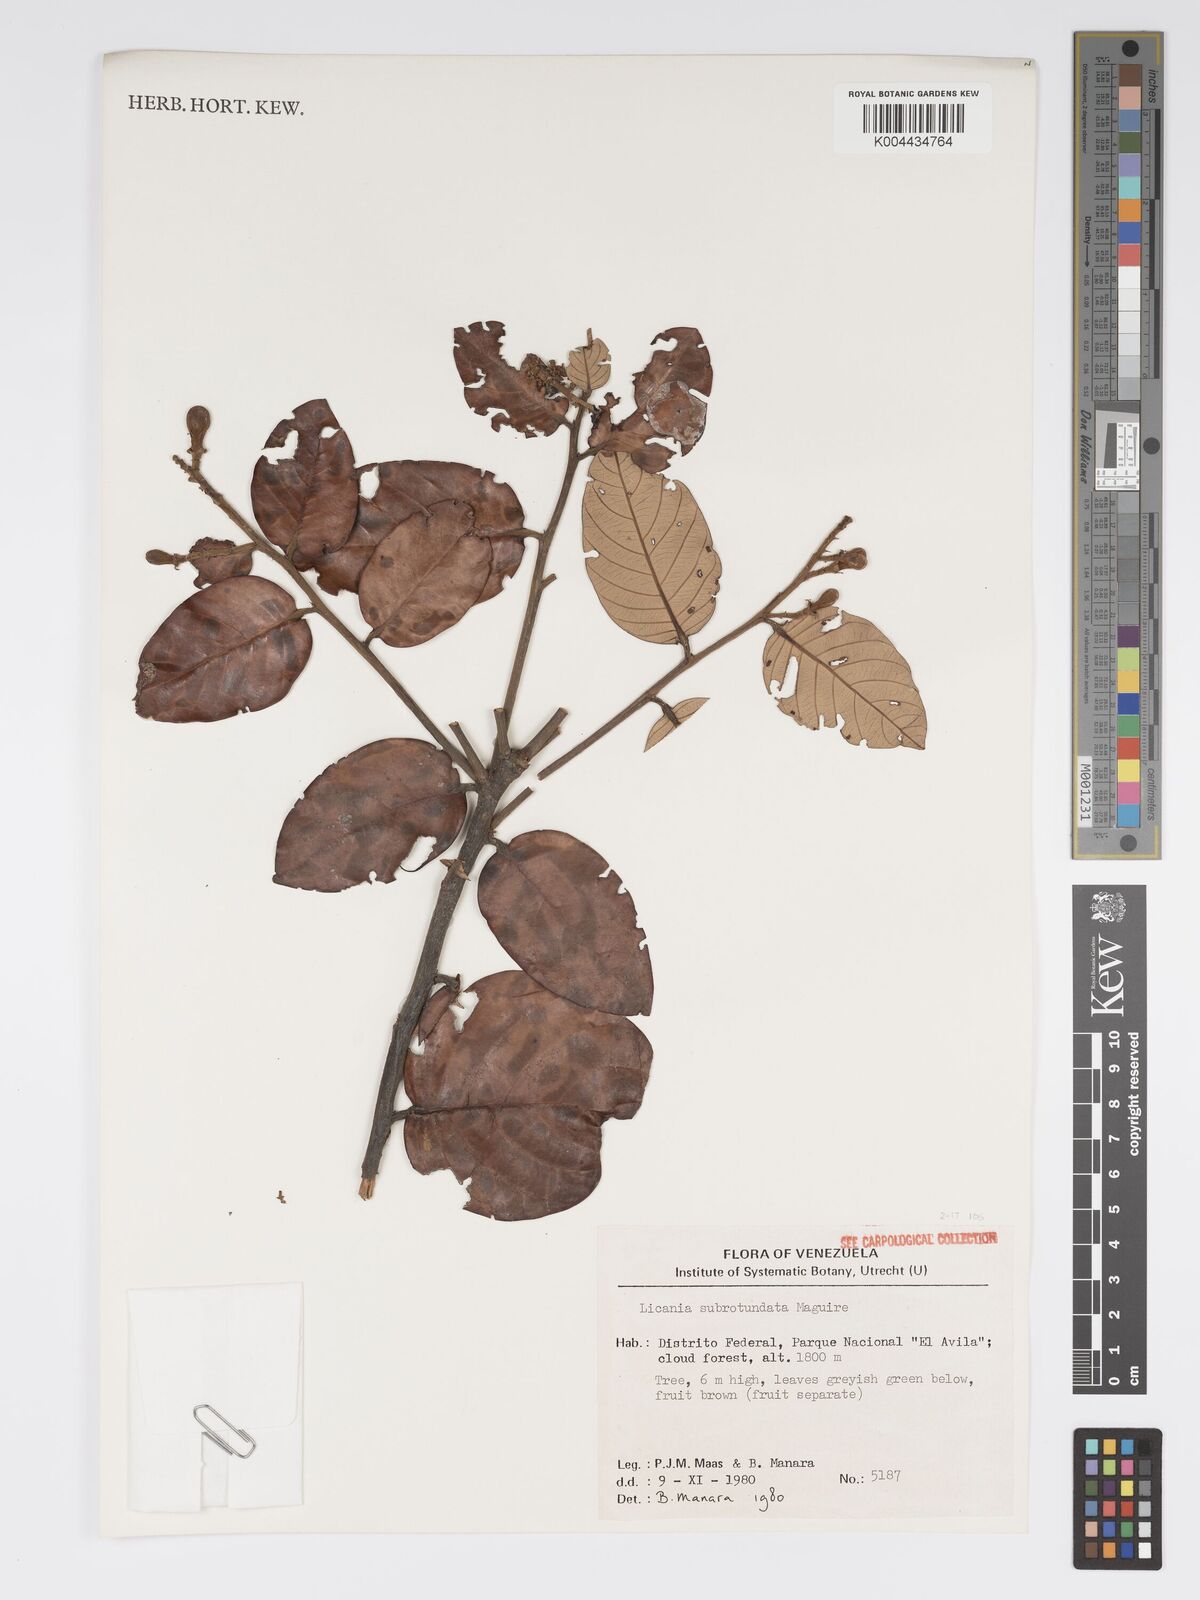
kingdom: Plantae
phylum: Tracheophyta
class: Magnoliopsida
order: Malpighiales
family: Chrysobalanaceae
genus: Licania
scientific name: Licania subrotundata
